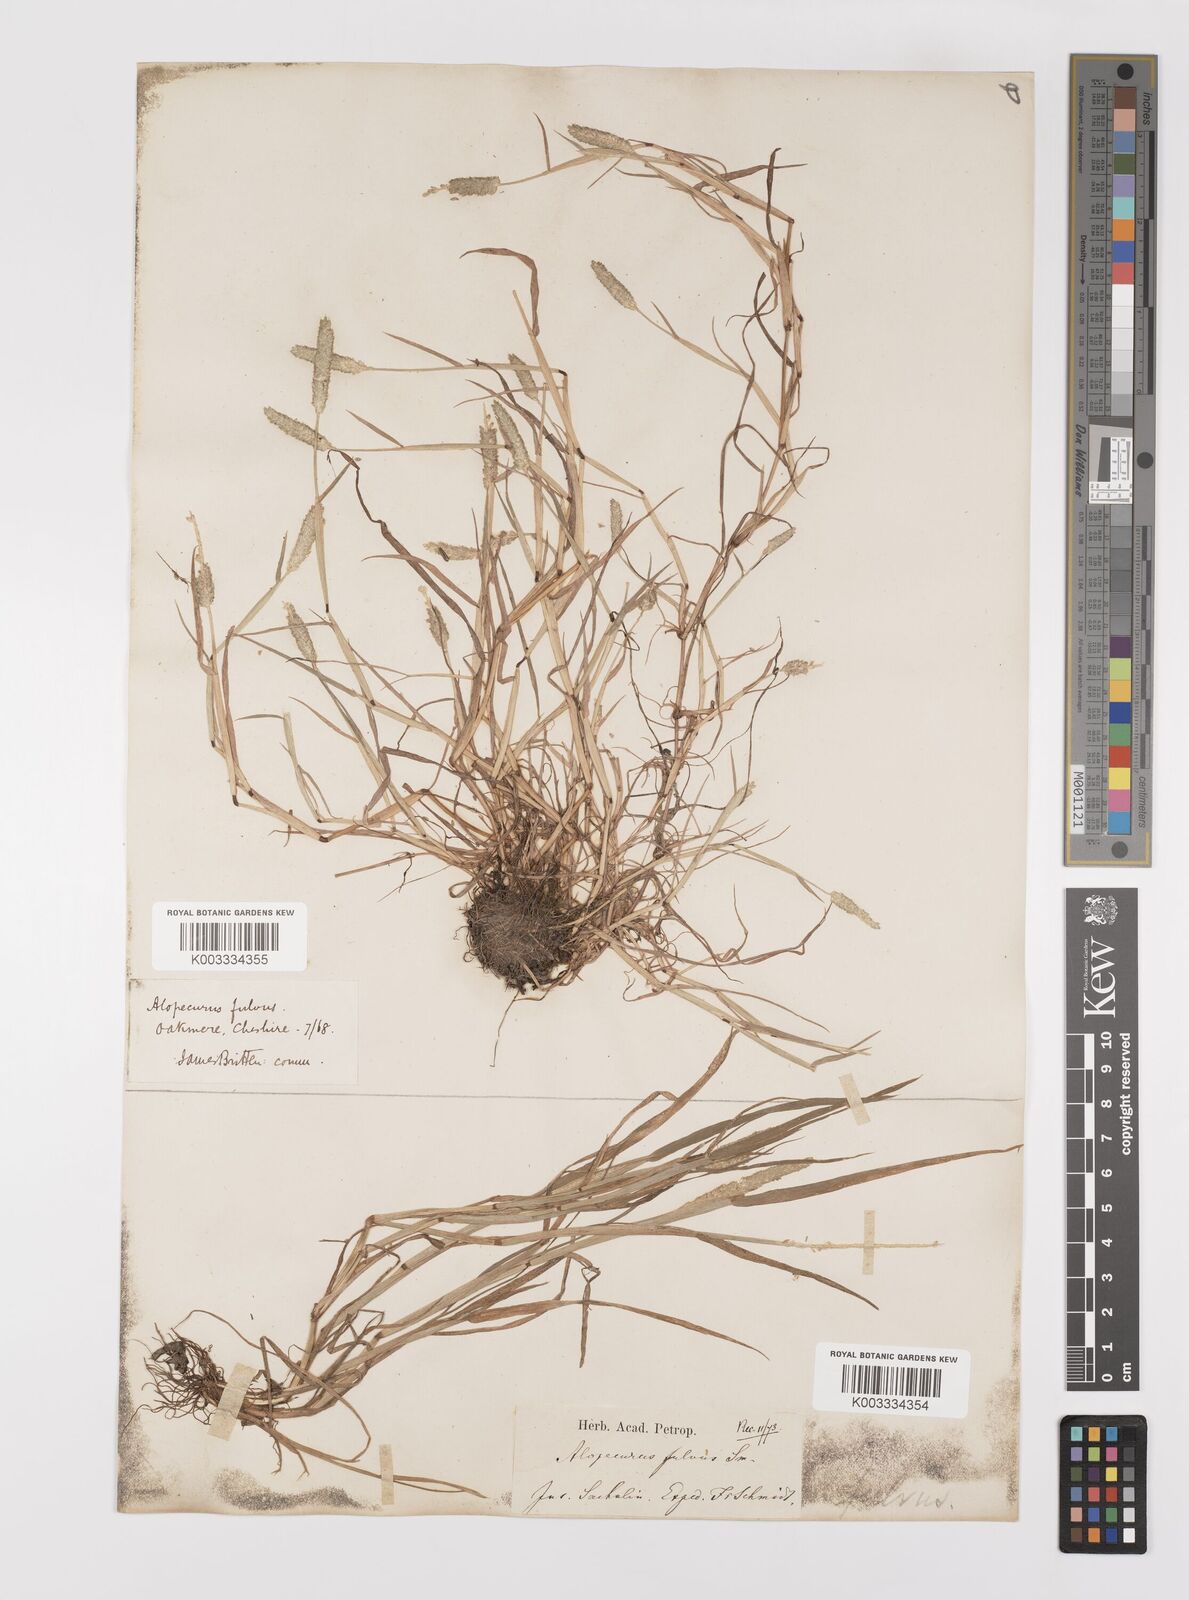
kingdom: Plantae
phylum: Tracheophyta
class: Liliopsida
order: Poales
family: Poaceae
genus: Alopecurus
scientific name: Alopecurus aequalis
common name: Orange foxtail
